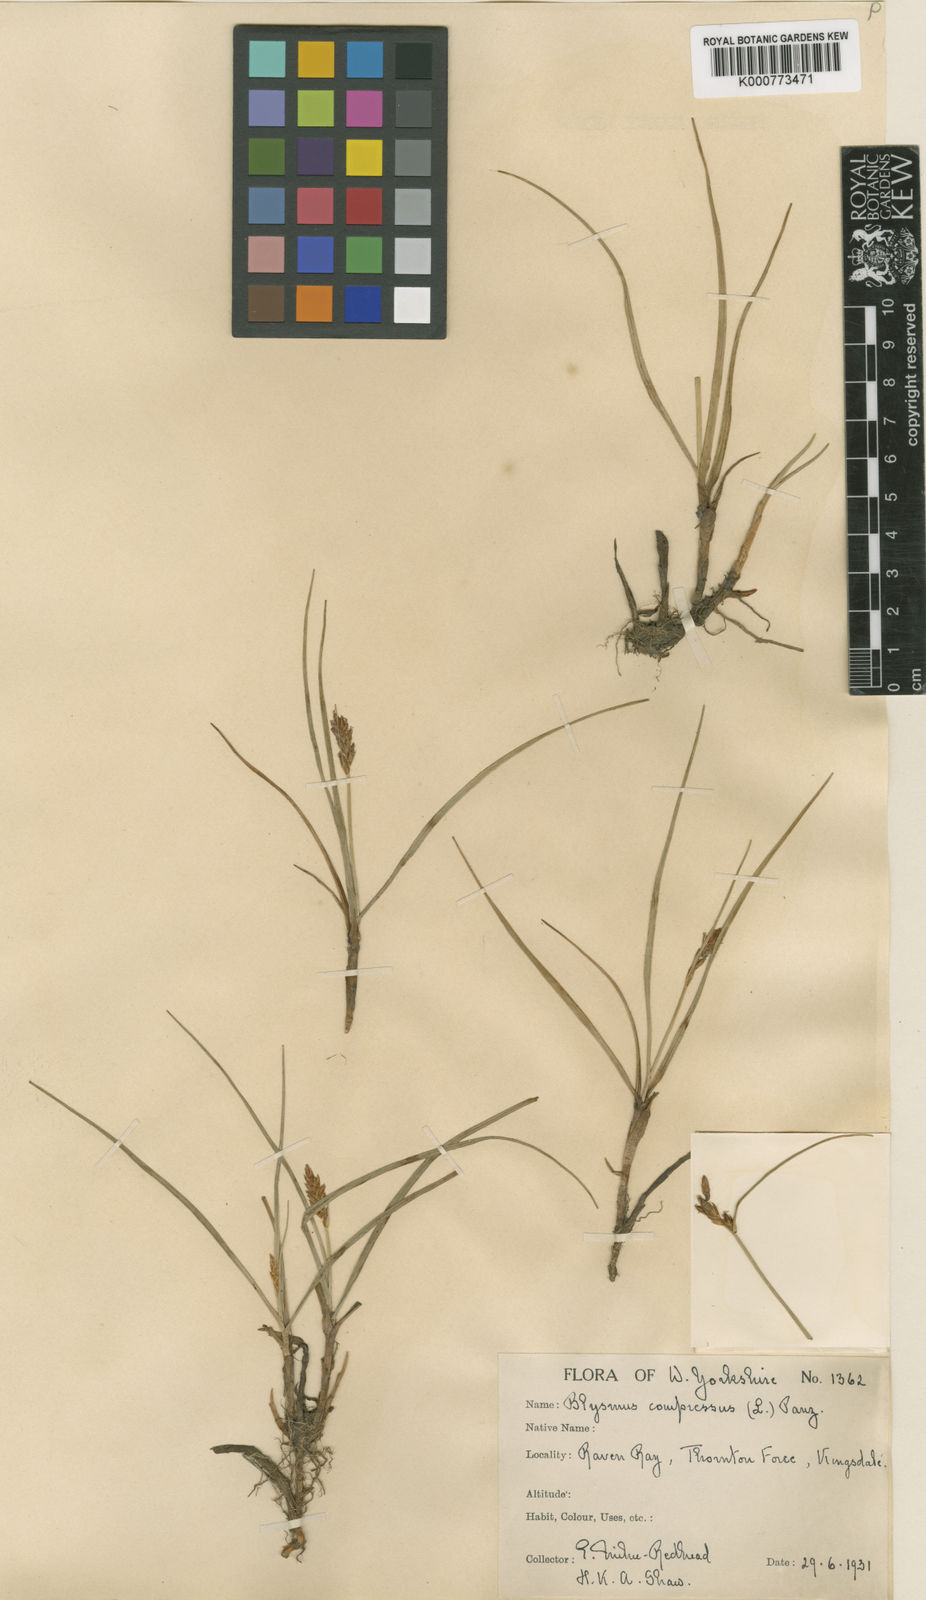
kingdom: Plantae
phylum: Tracheophyta
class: Liliopsida
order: Poales
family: Cyperaceae
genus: Blysmus
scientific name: Blysmus compressus
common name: Flat-sedge
